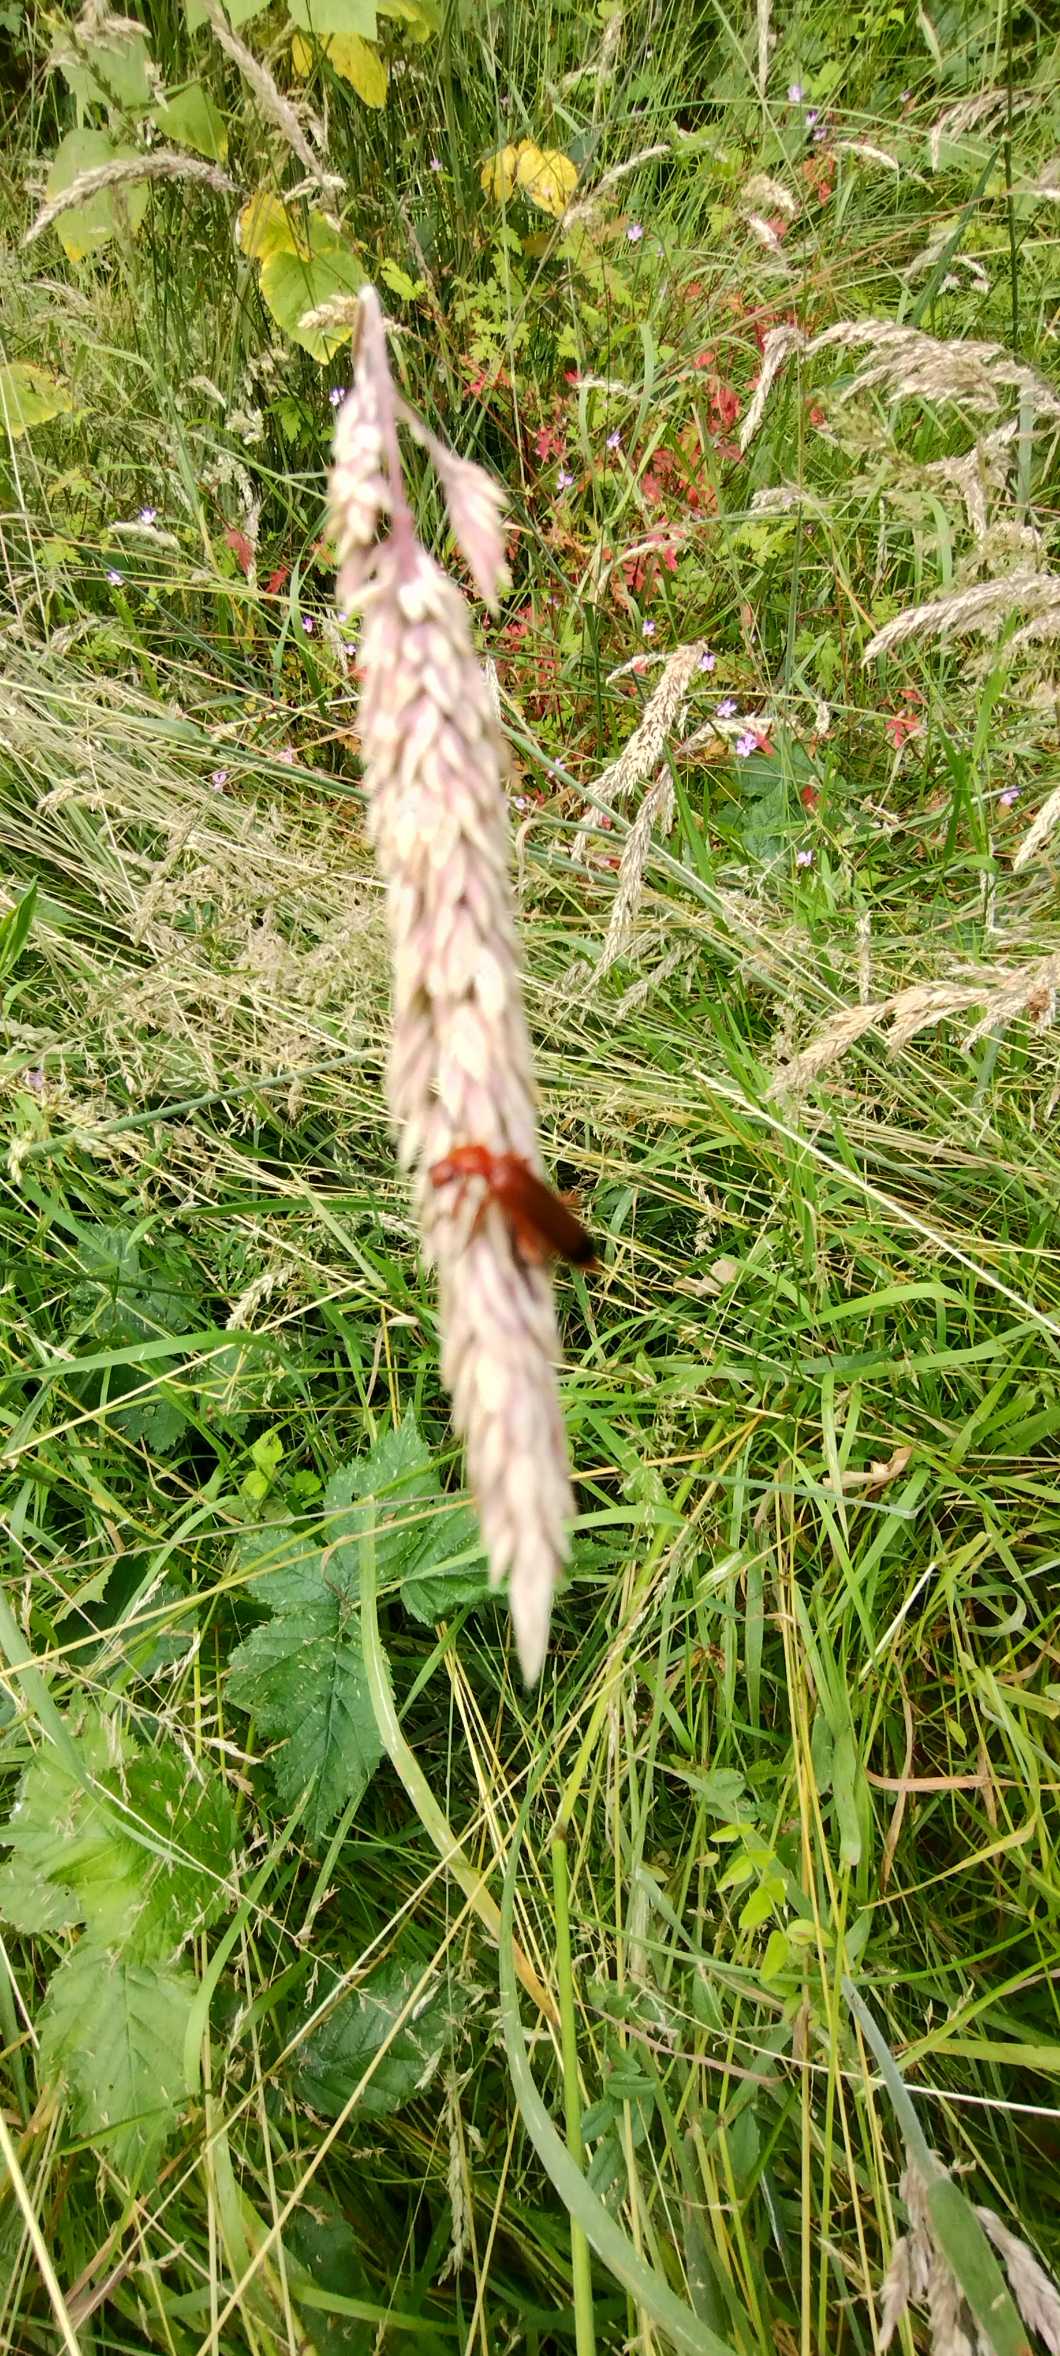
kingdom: Animalia
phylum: Arthropoda
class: Insecta
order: Coleoptera
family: Cantharidae
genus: Rhagonycha
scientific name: Rhagonycha fulva
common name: Præstebille
